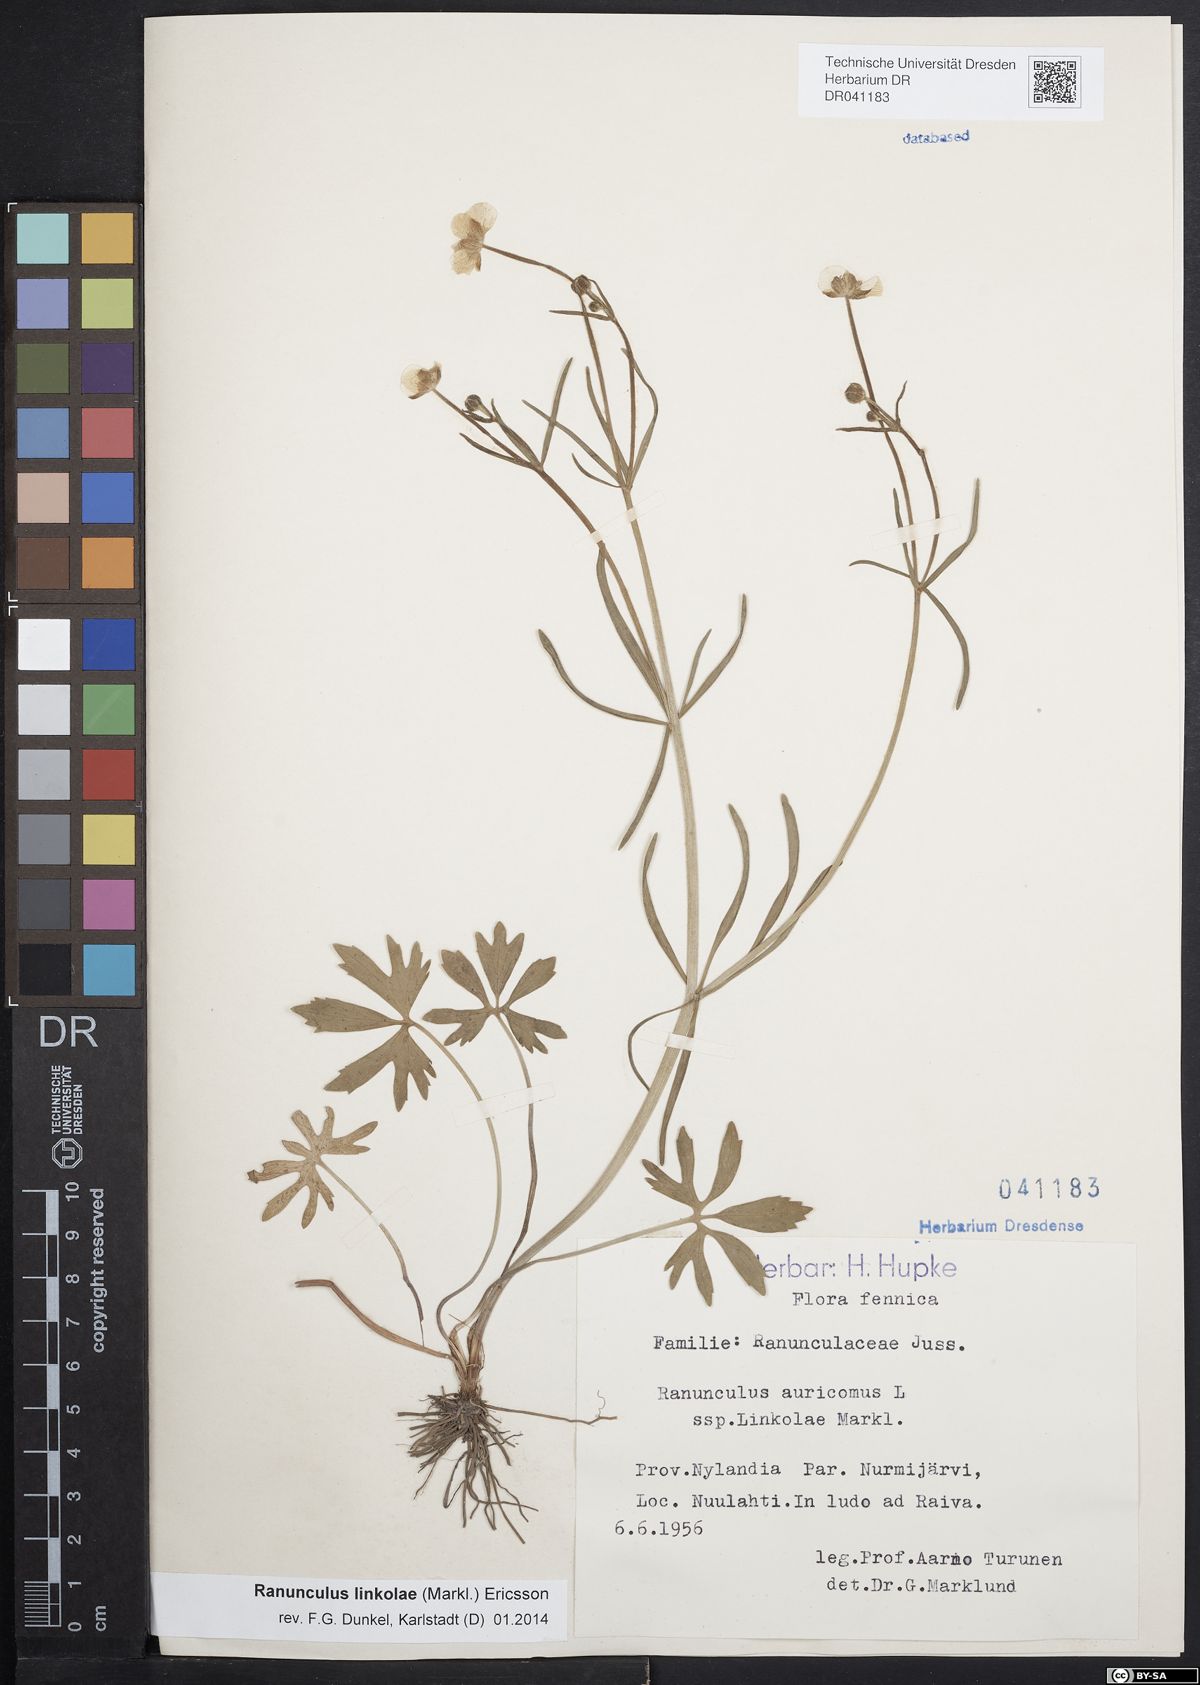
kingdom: Plantae
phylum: Tracheophyta
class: Magnoliopsida
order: Ranunculales
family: Ranunculaceae
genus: Ranunculus
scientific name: Ranunculus linkolae
